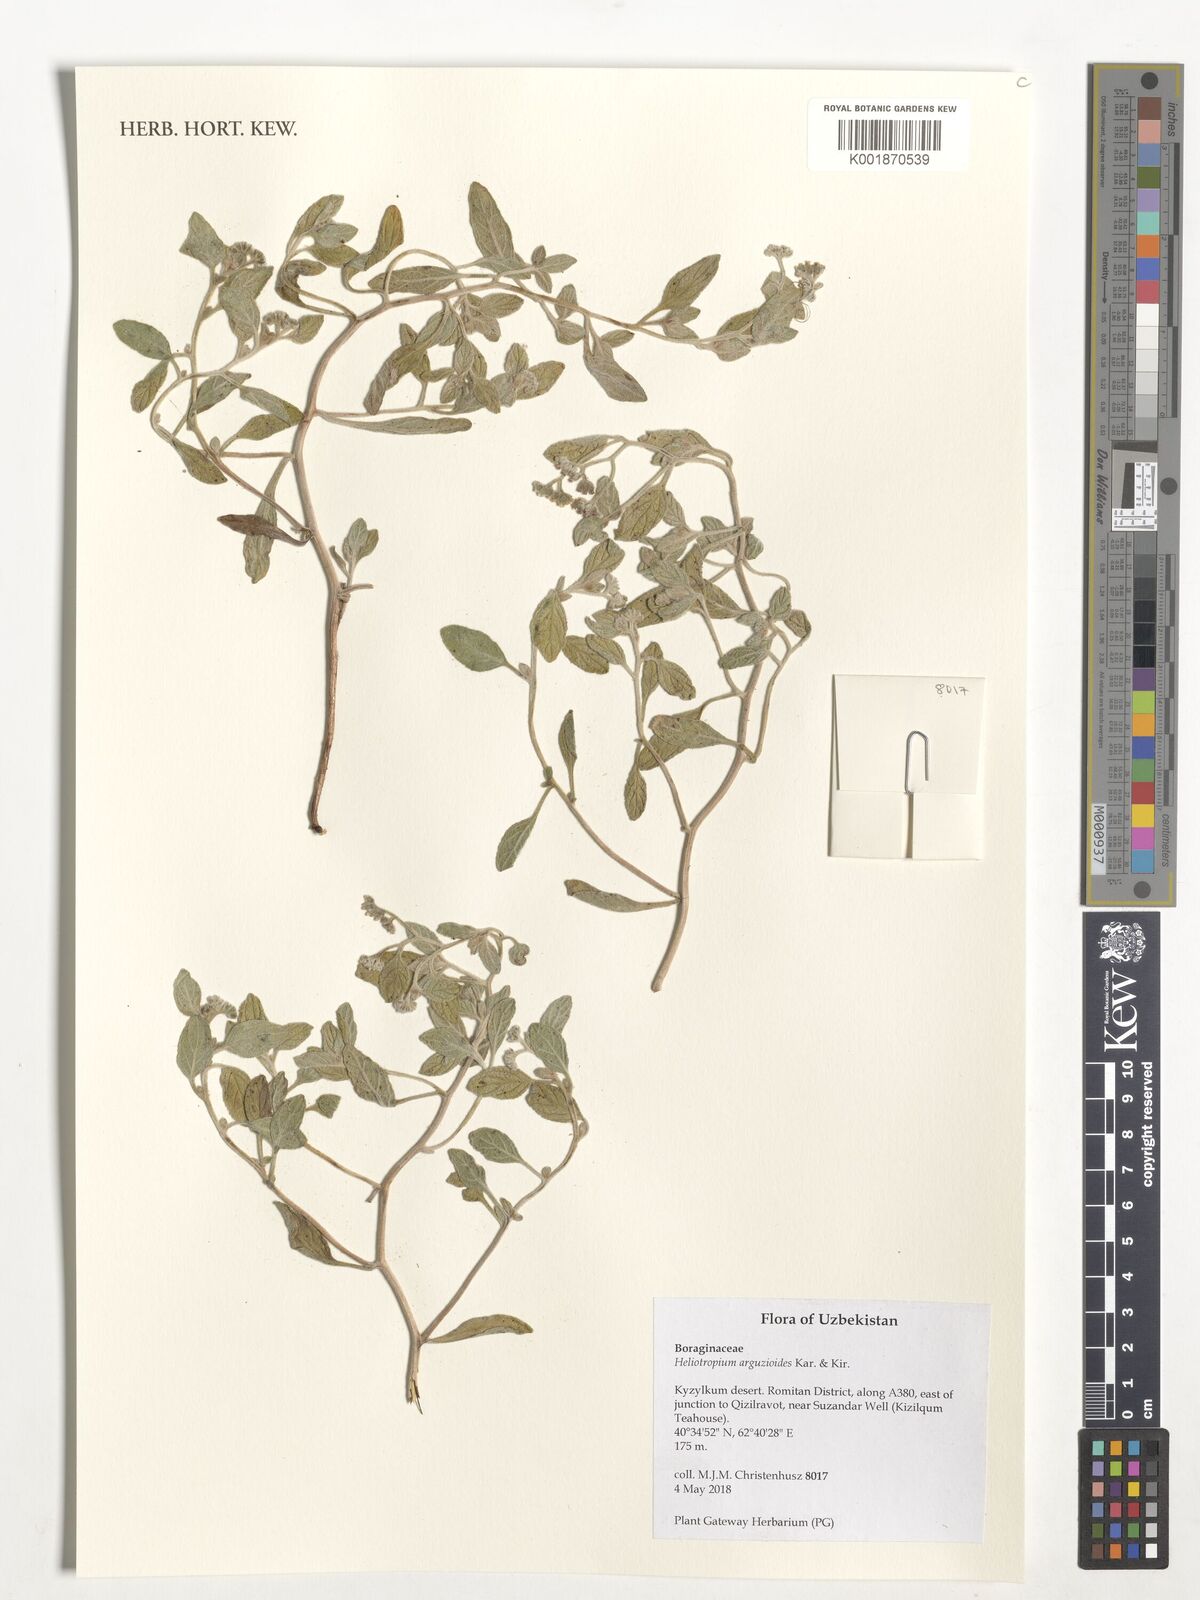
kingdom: Plantae
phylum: Tracheophyta
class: Magnoliopsida
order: Boraginales
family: Heliotropiaceae
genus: Heliotropium
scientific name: Heliotropium arguzioides
